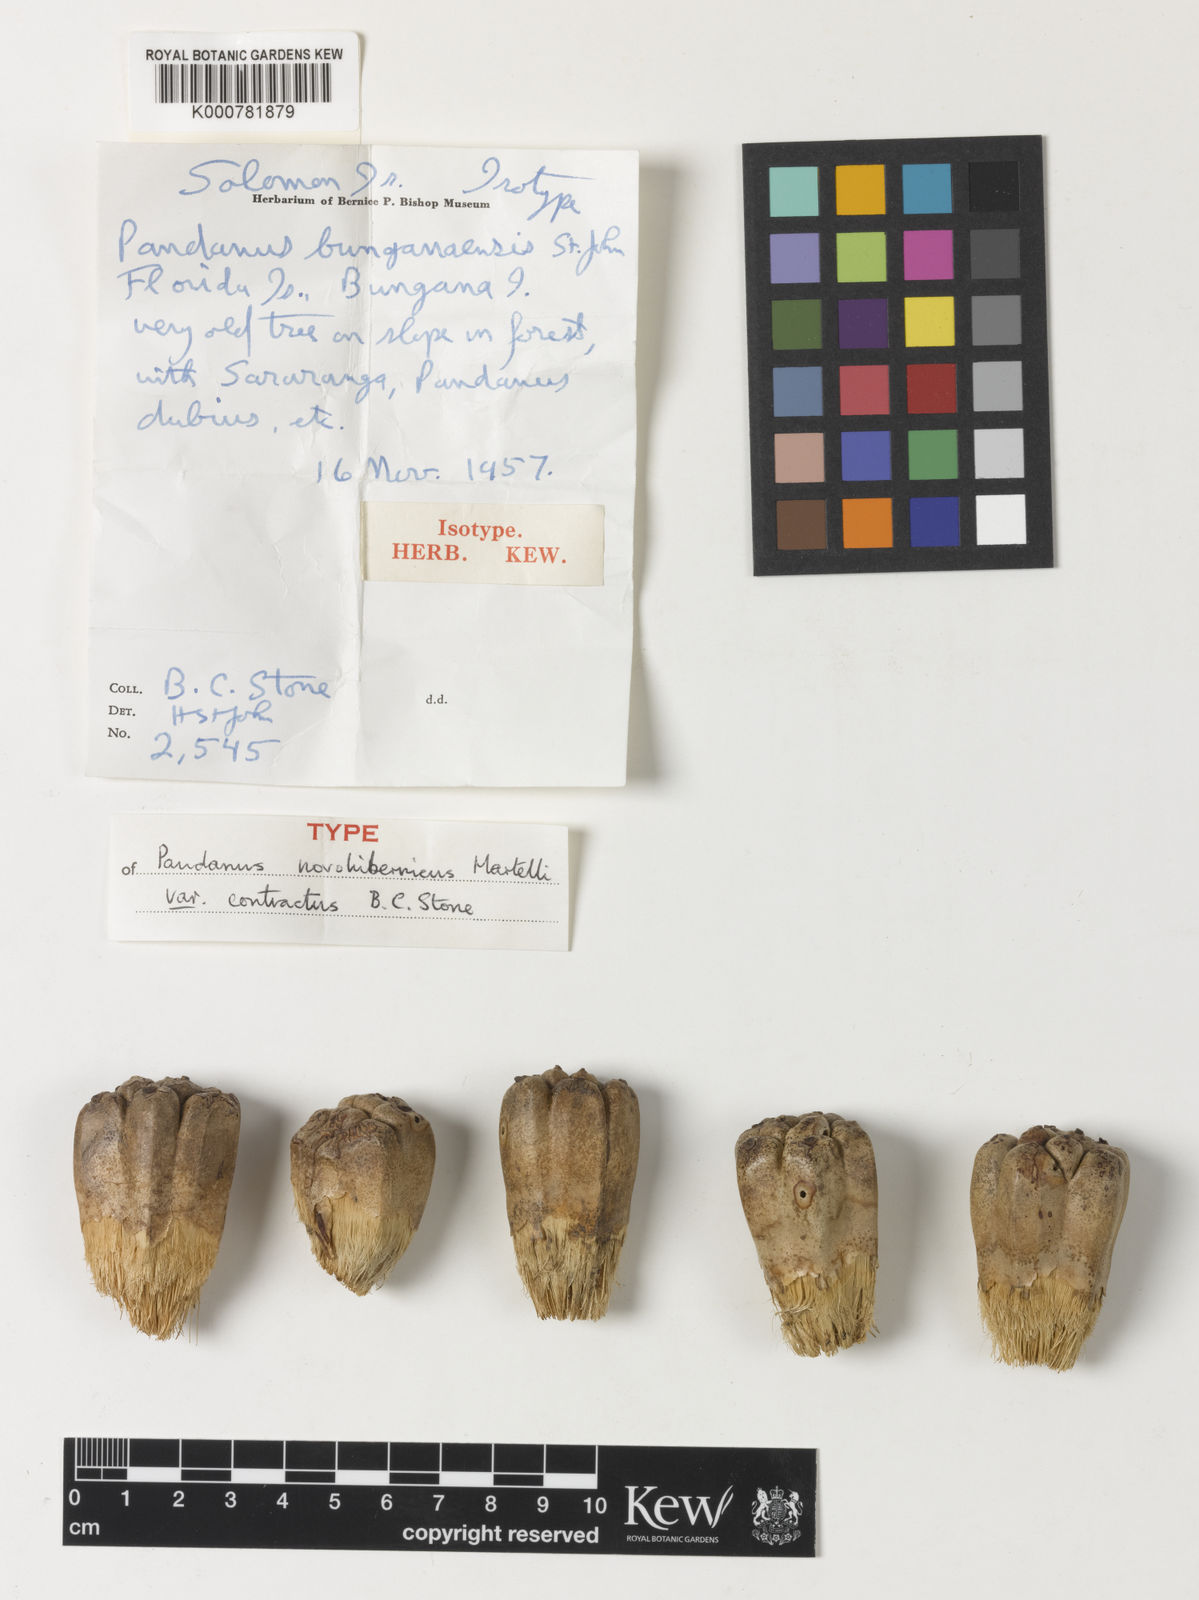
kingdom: Plantae
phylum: Tracheophyta
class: Liliopsida
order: Pandanales
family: Pandanaceae
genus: Pandanus
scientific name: Pandanus novohibernicus
